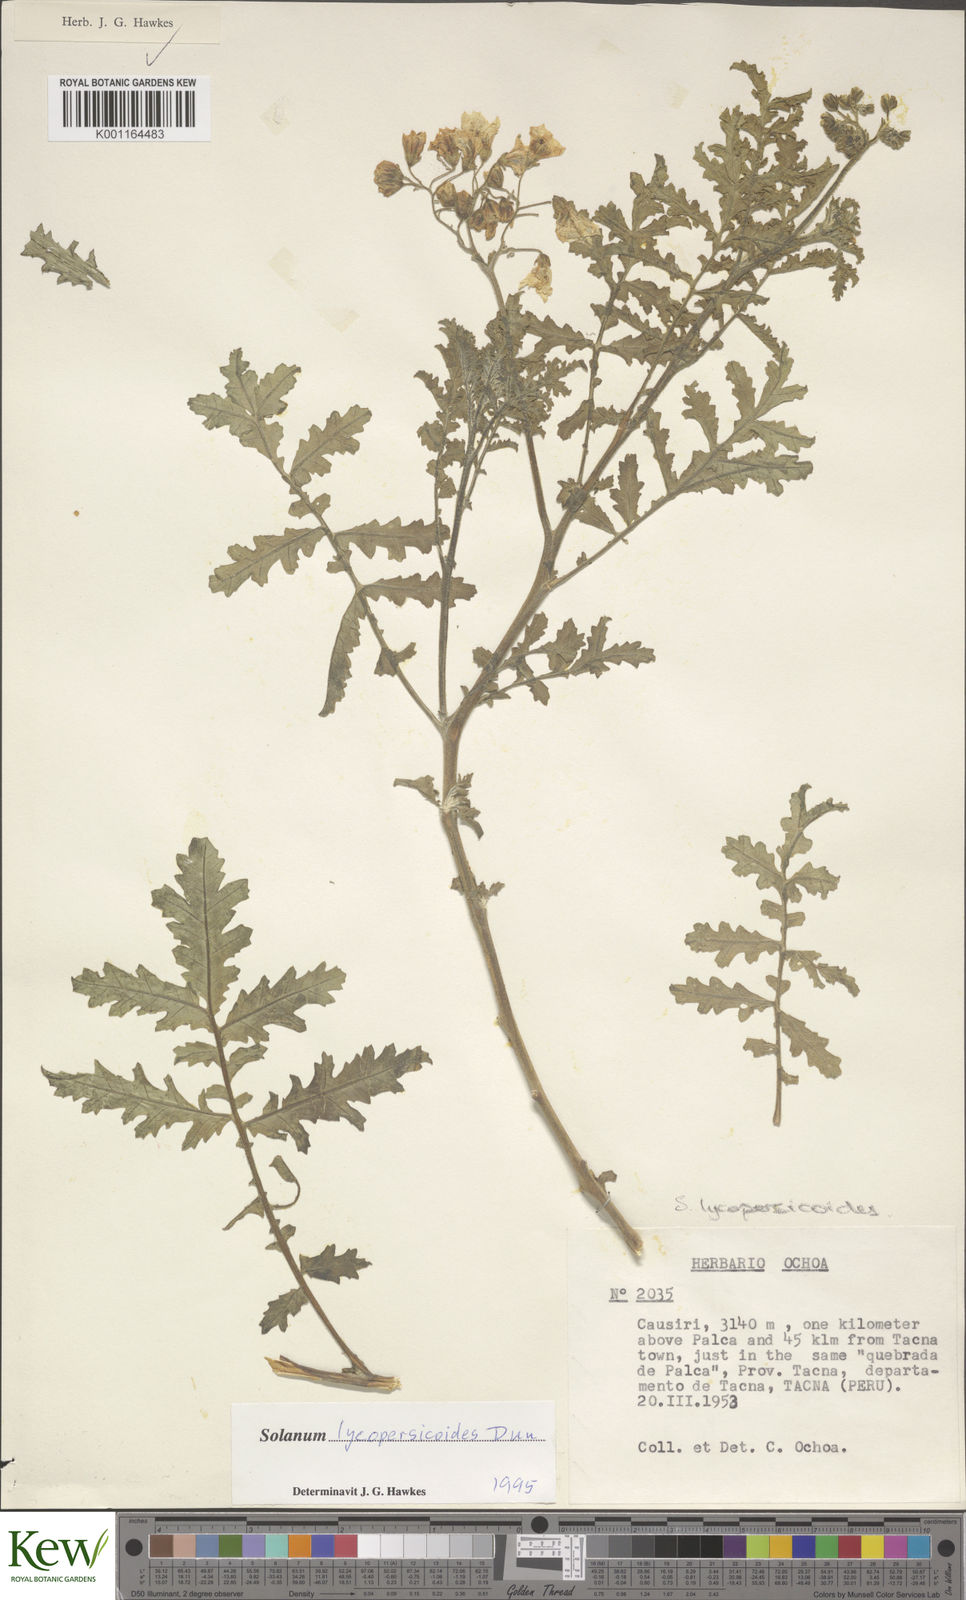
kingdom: Plantae
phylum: Tracheophyta
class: Magnoliopsida
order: Solanales
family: Solanaceae
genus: Solanum
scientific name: Solanum lycopersicoides
